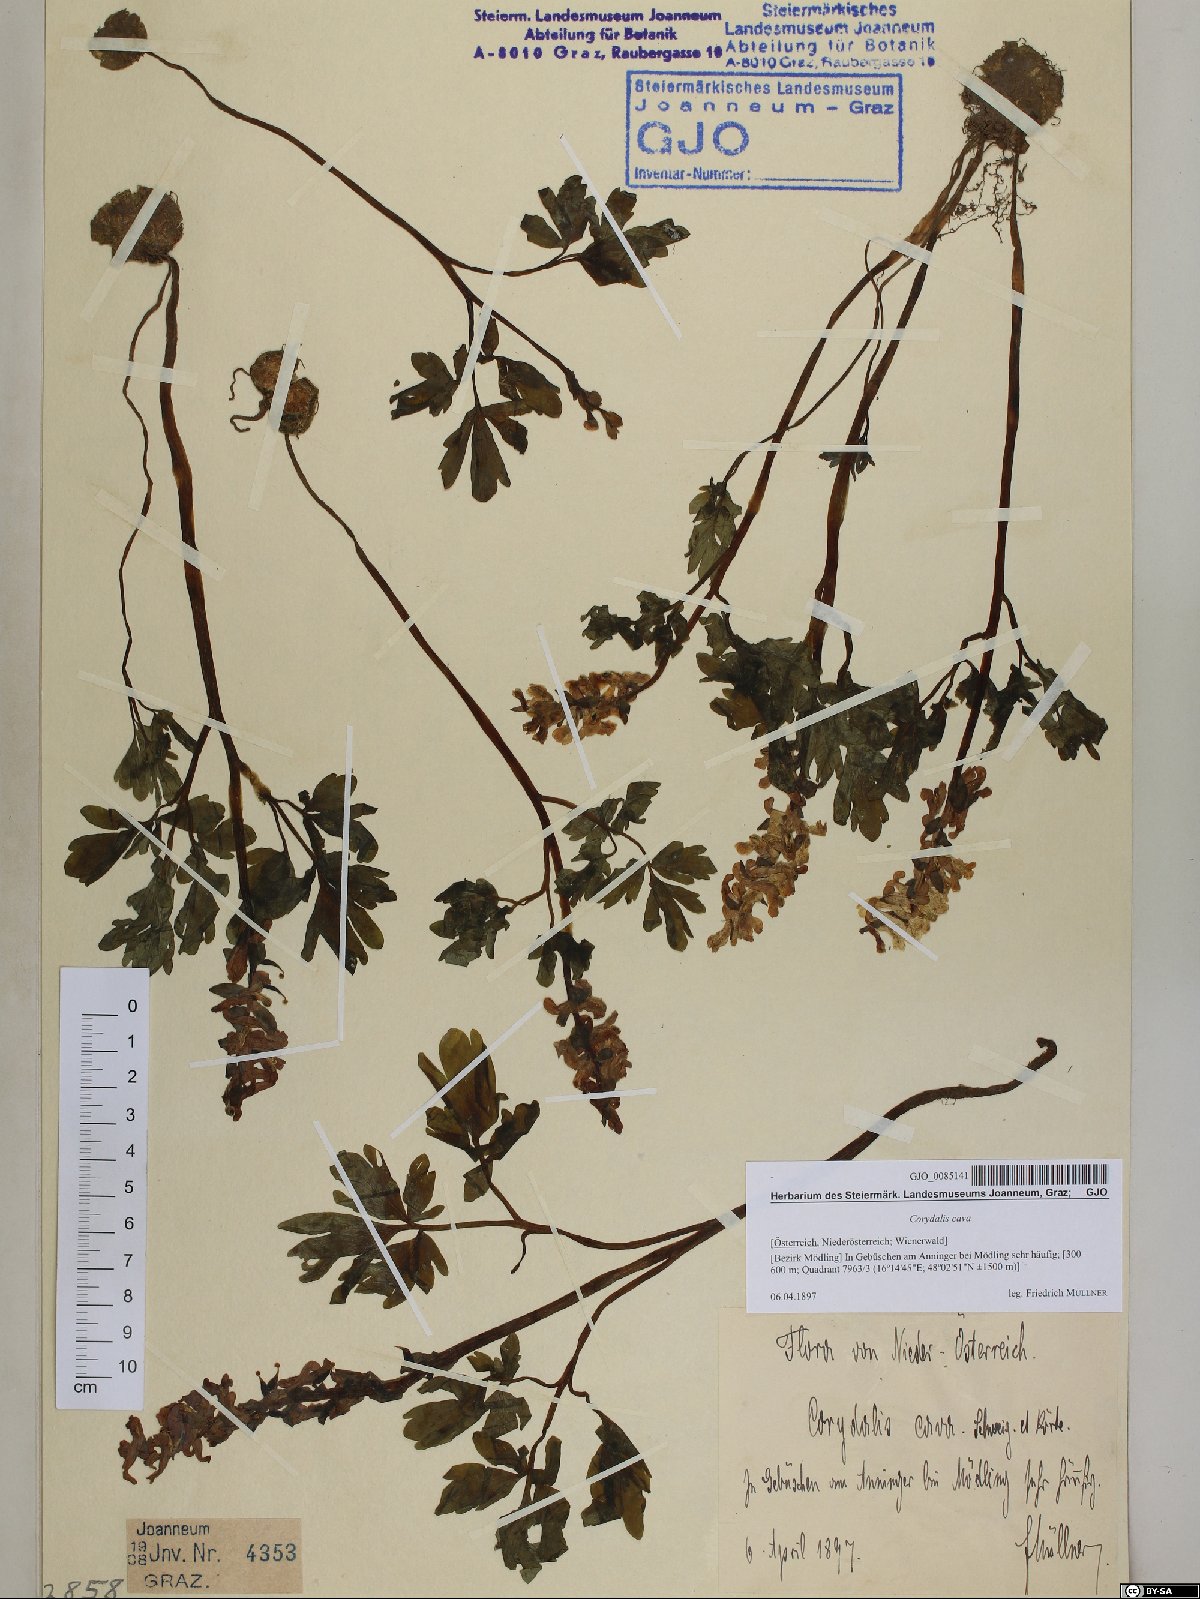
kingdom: Plantae
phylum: Tracheophyta
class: Magnoliopsida
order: Ranunculales
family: Papaveraceae
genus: Corydalis
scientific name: Corydalis cava
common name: Hollowroot
